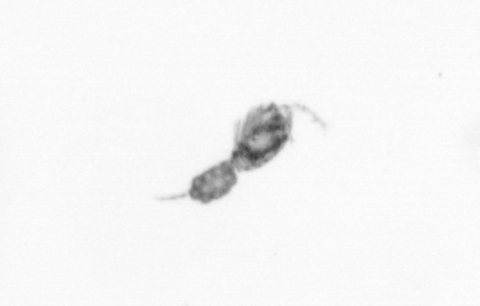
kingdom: Animalia
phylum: Arthropoda
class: Copepoda
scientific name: Copepoda
